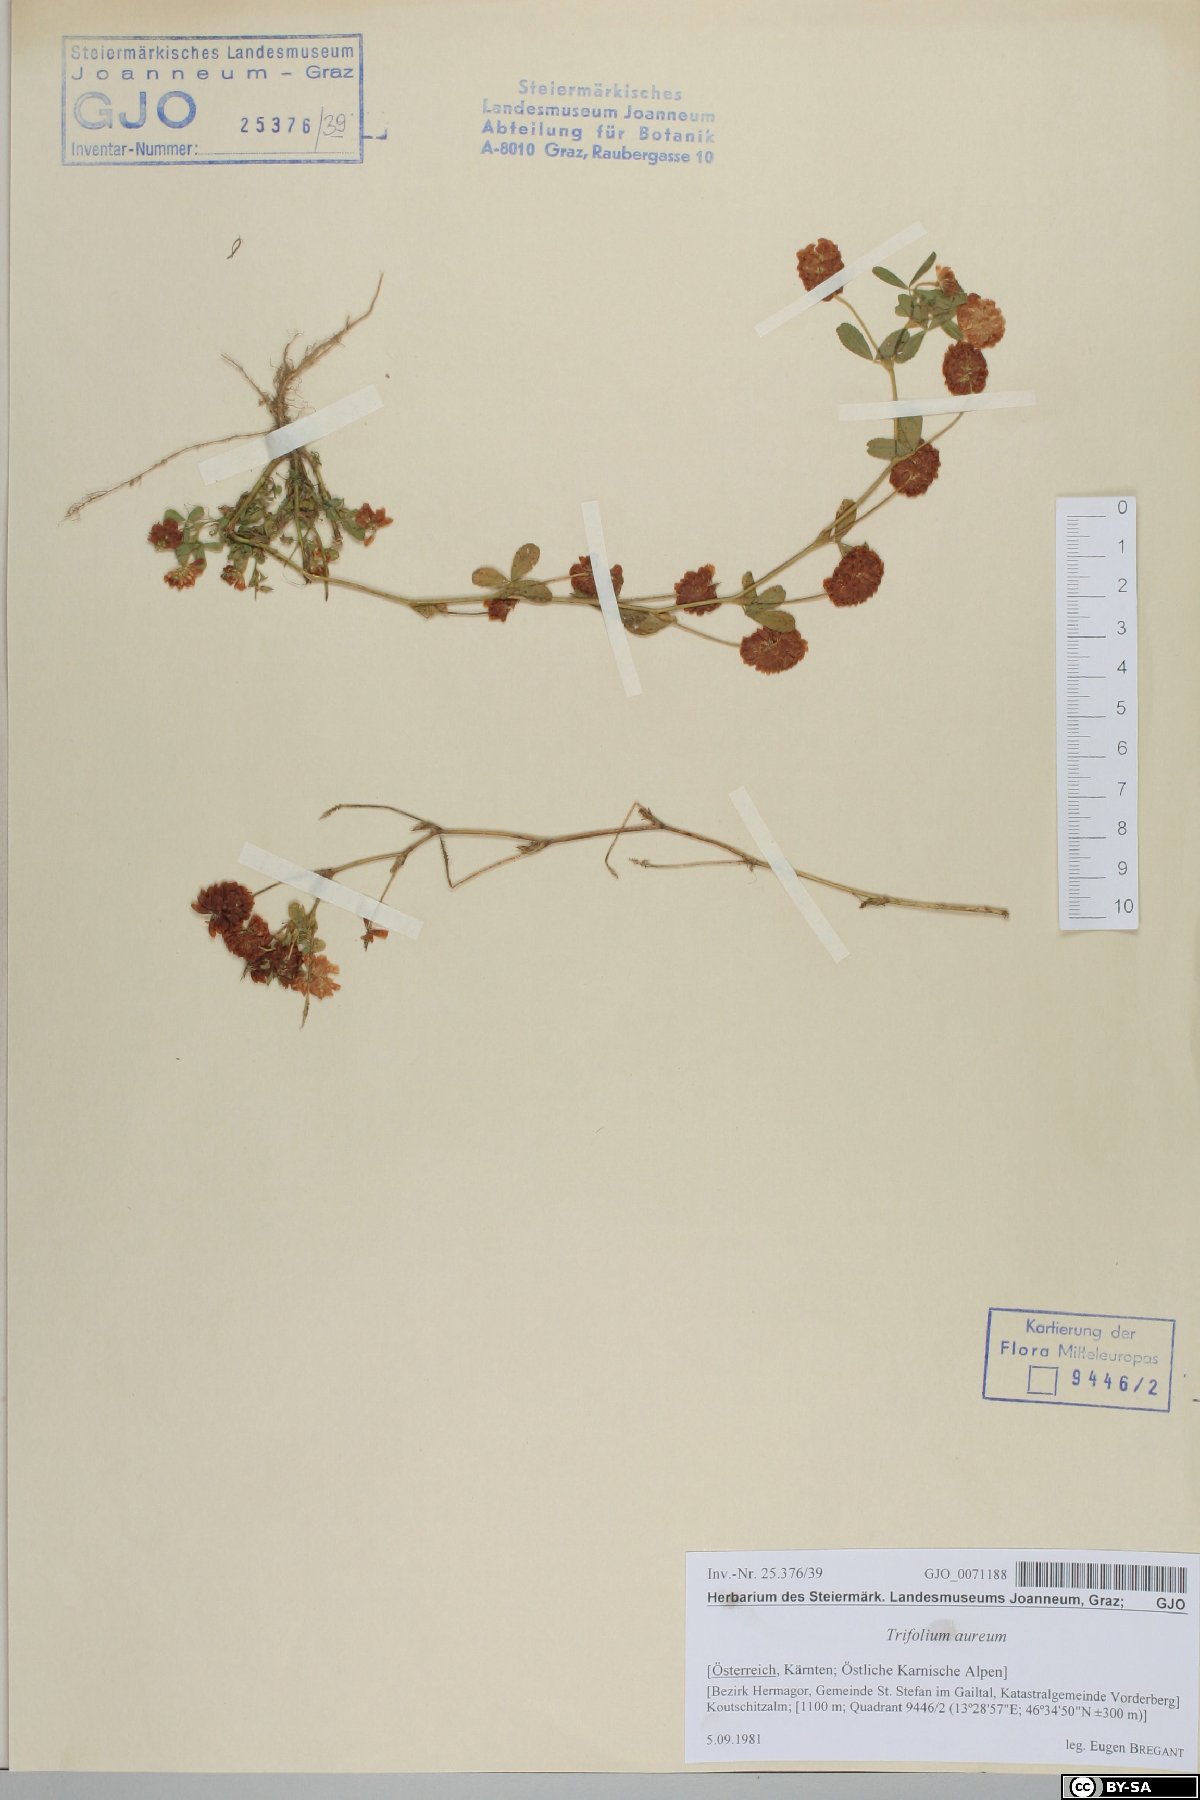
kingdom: Plantae
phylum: Tracheophyta
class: Magnoliopsida
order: Fabales
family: Fabaceae
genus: Trifolium
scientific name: Trifolium aureum
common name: Golden clover
